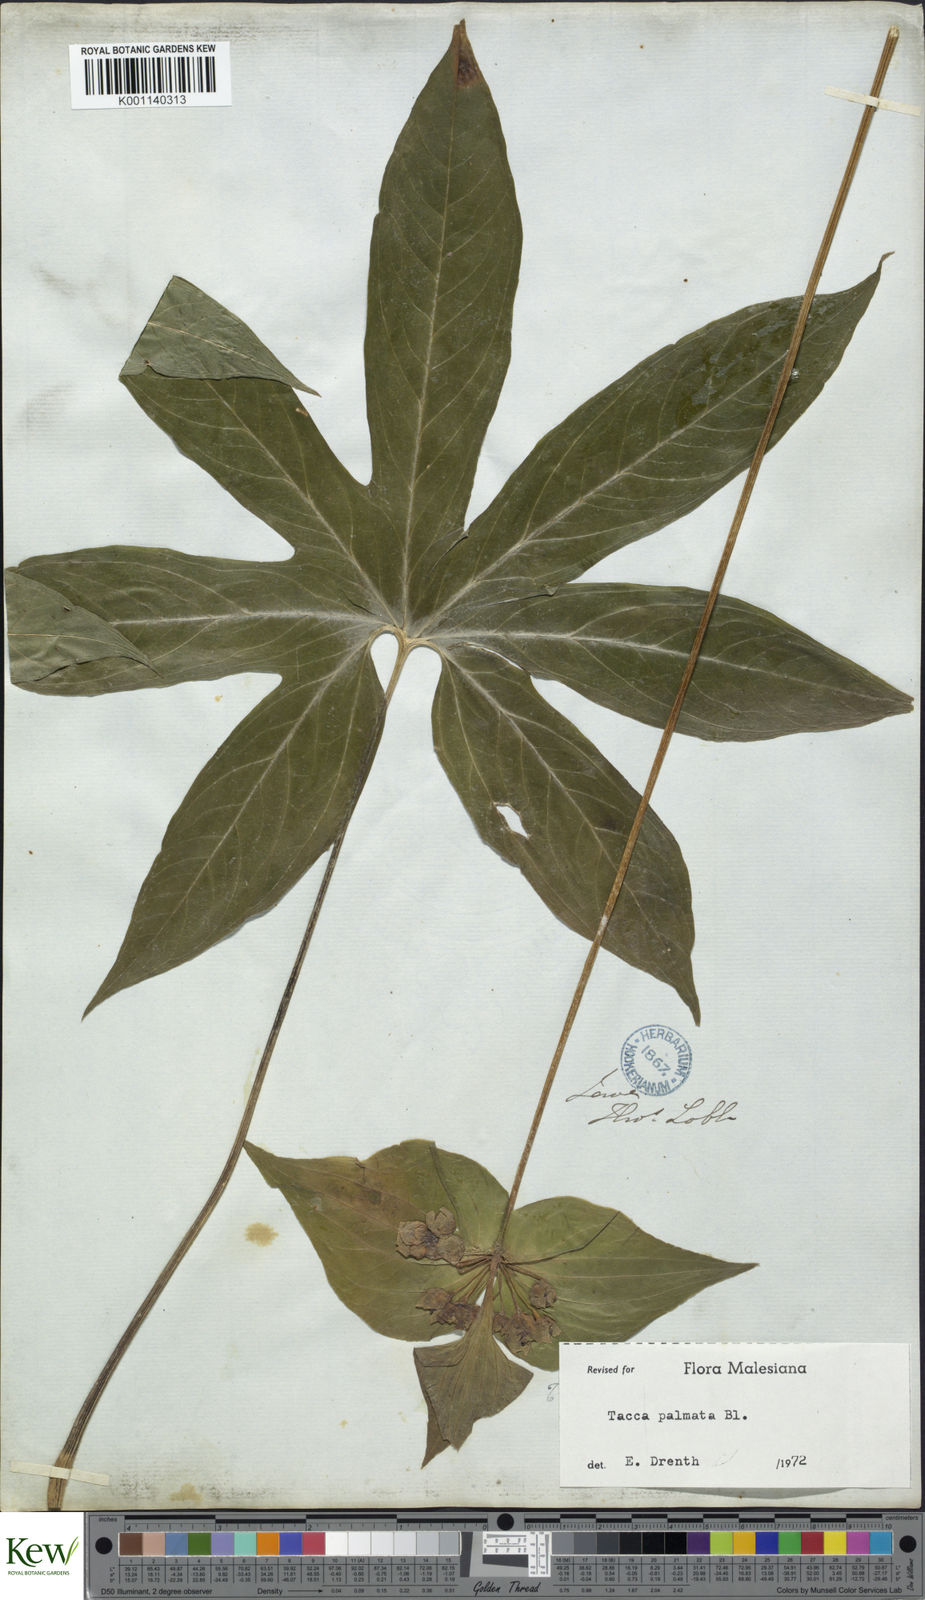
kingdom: Plantae
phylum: Tracheophyta
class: Liliopsida
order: Dioscoreales
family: Dioscoreaceae
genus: Tacca
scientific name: Tacca palmata
